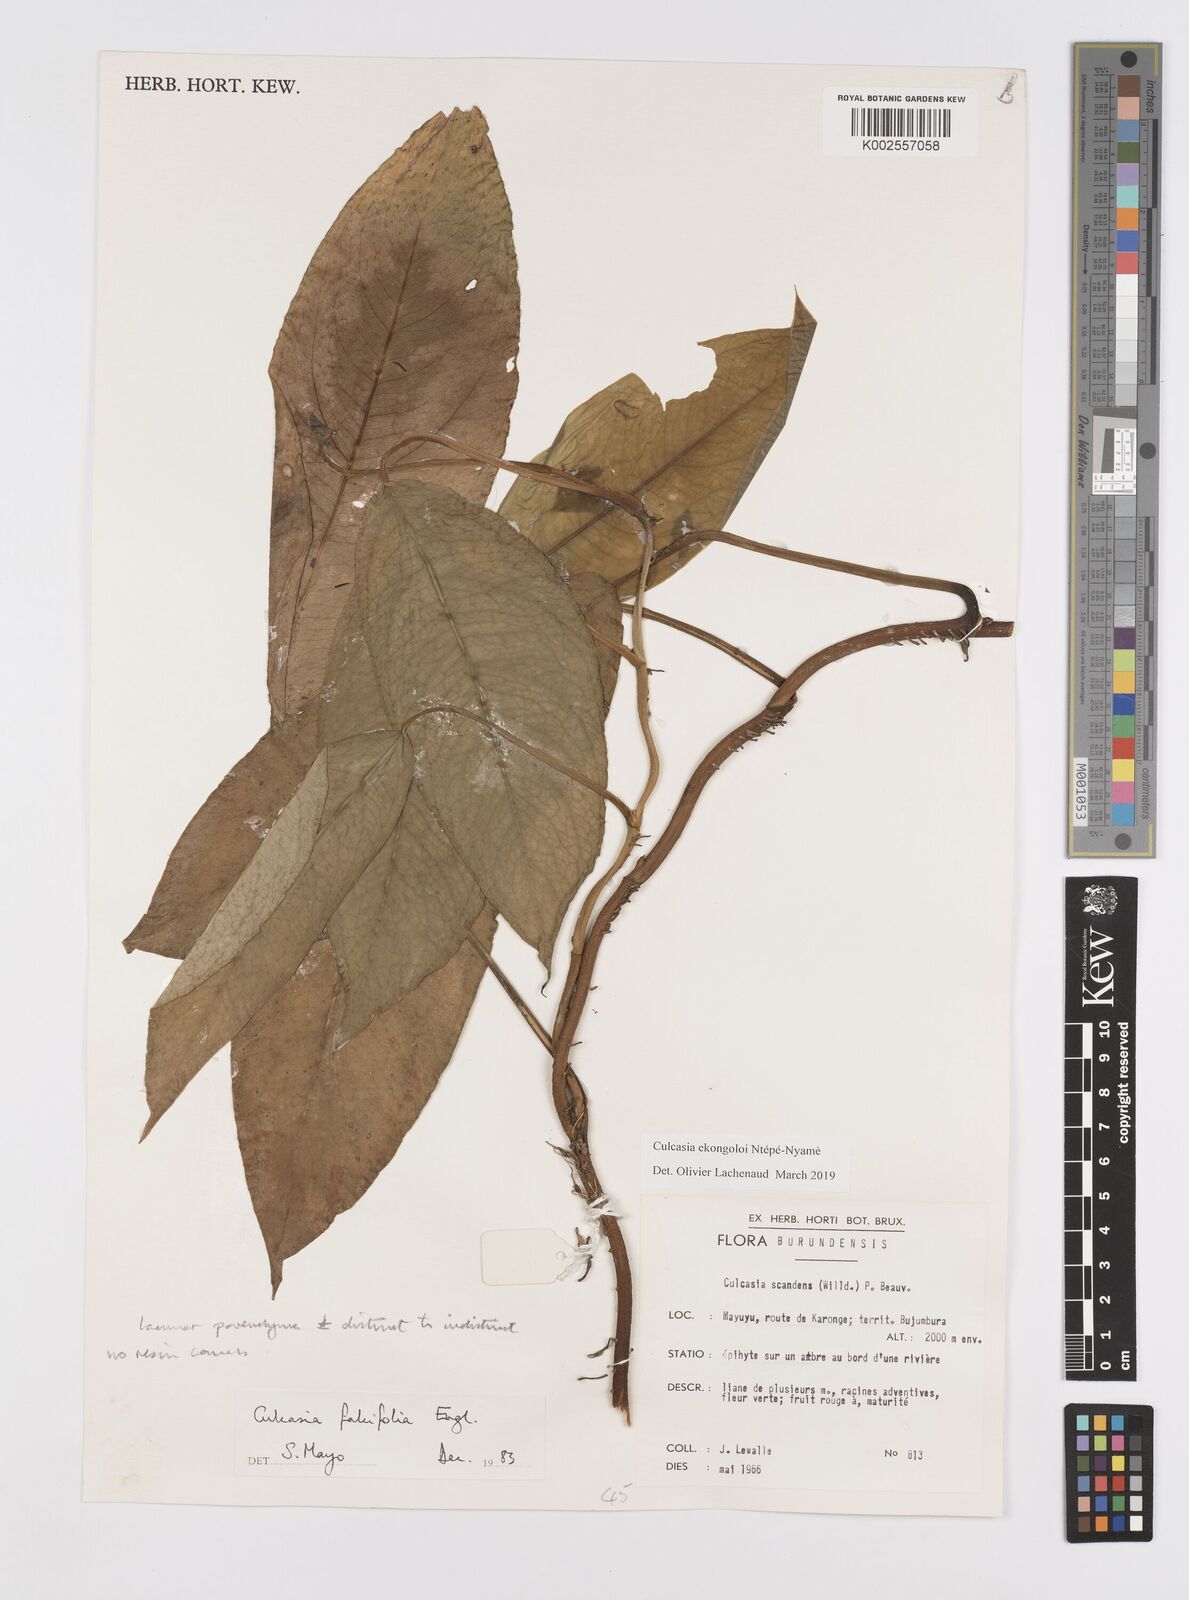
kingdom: Plantae
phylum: Tracheophyta
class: Liliopsida
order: Alismatales
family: Araceae
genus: Culcasia
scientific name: Culcasia ekongoloi
